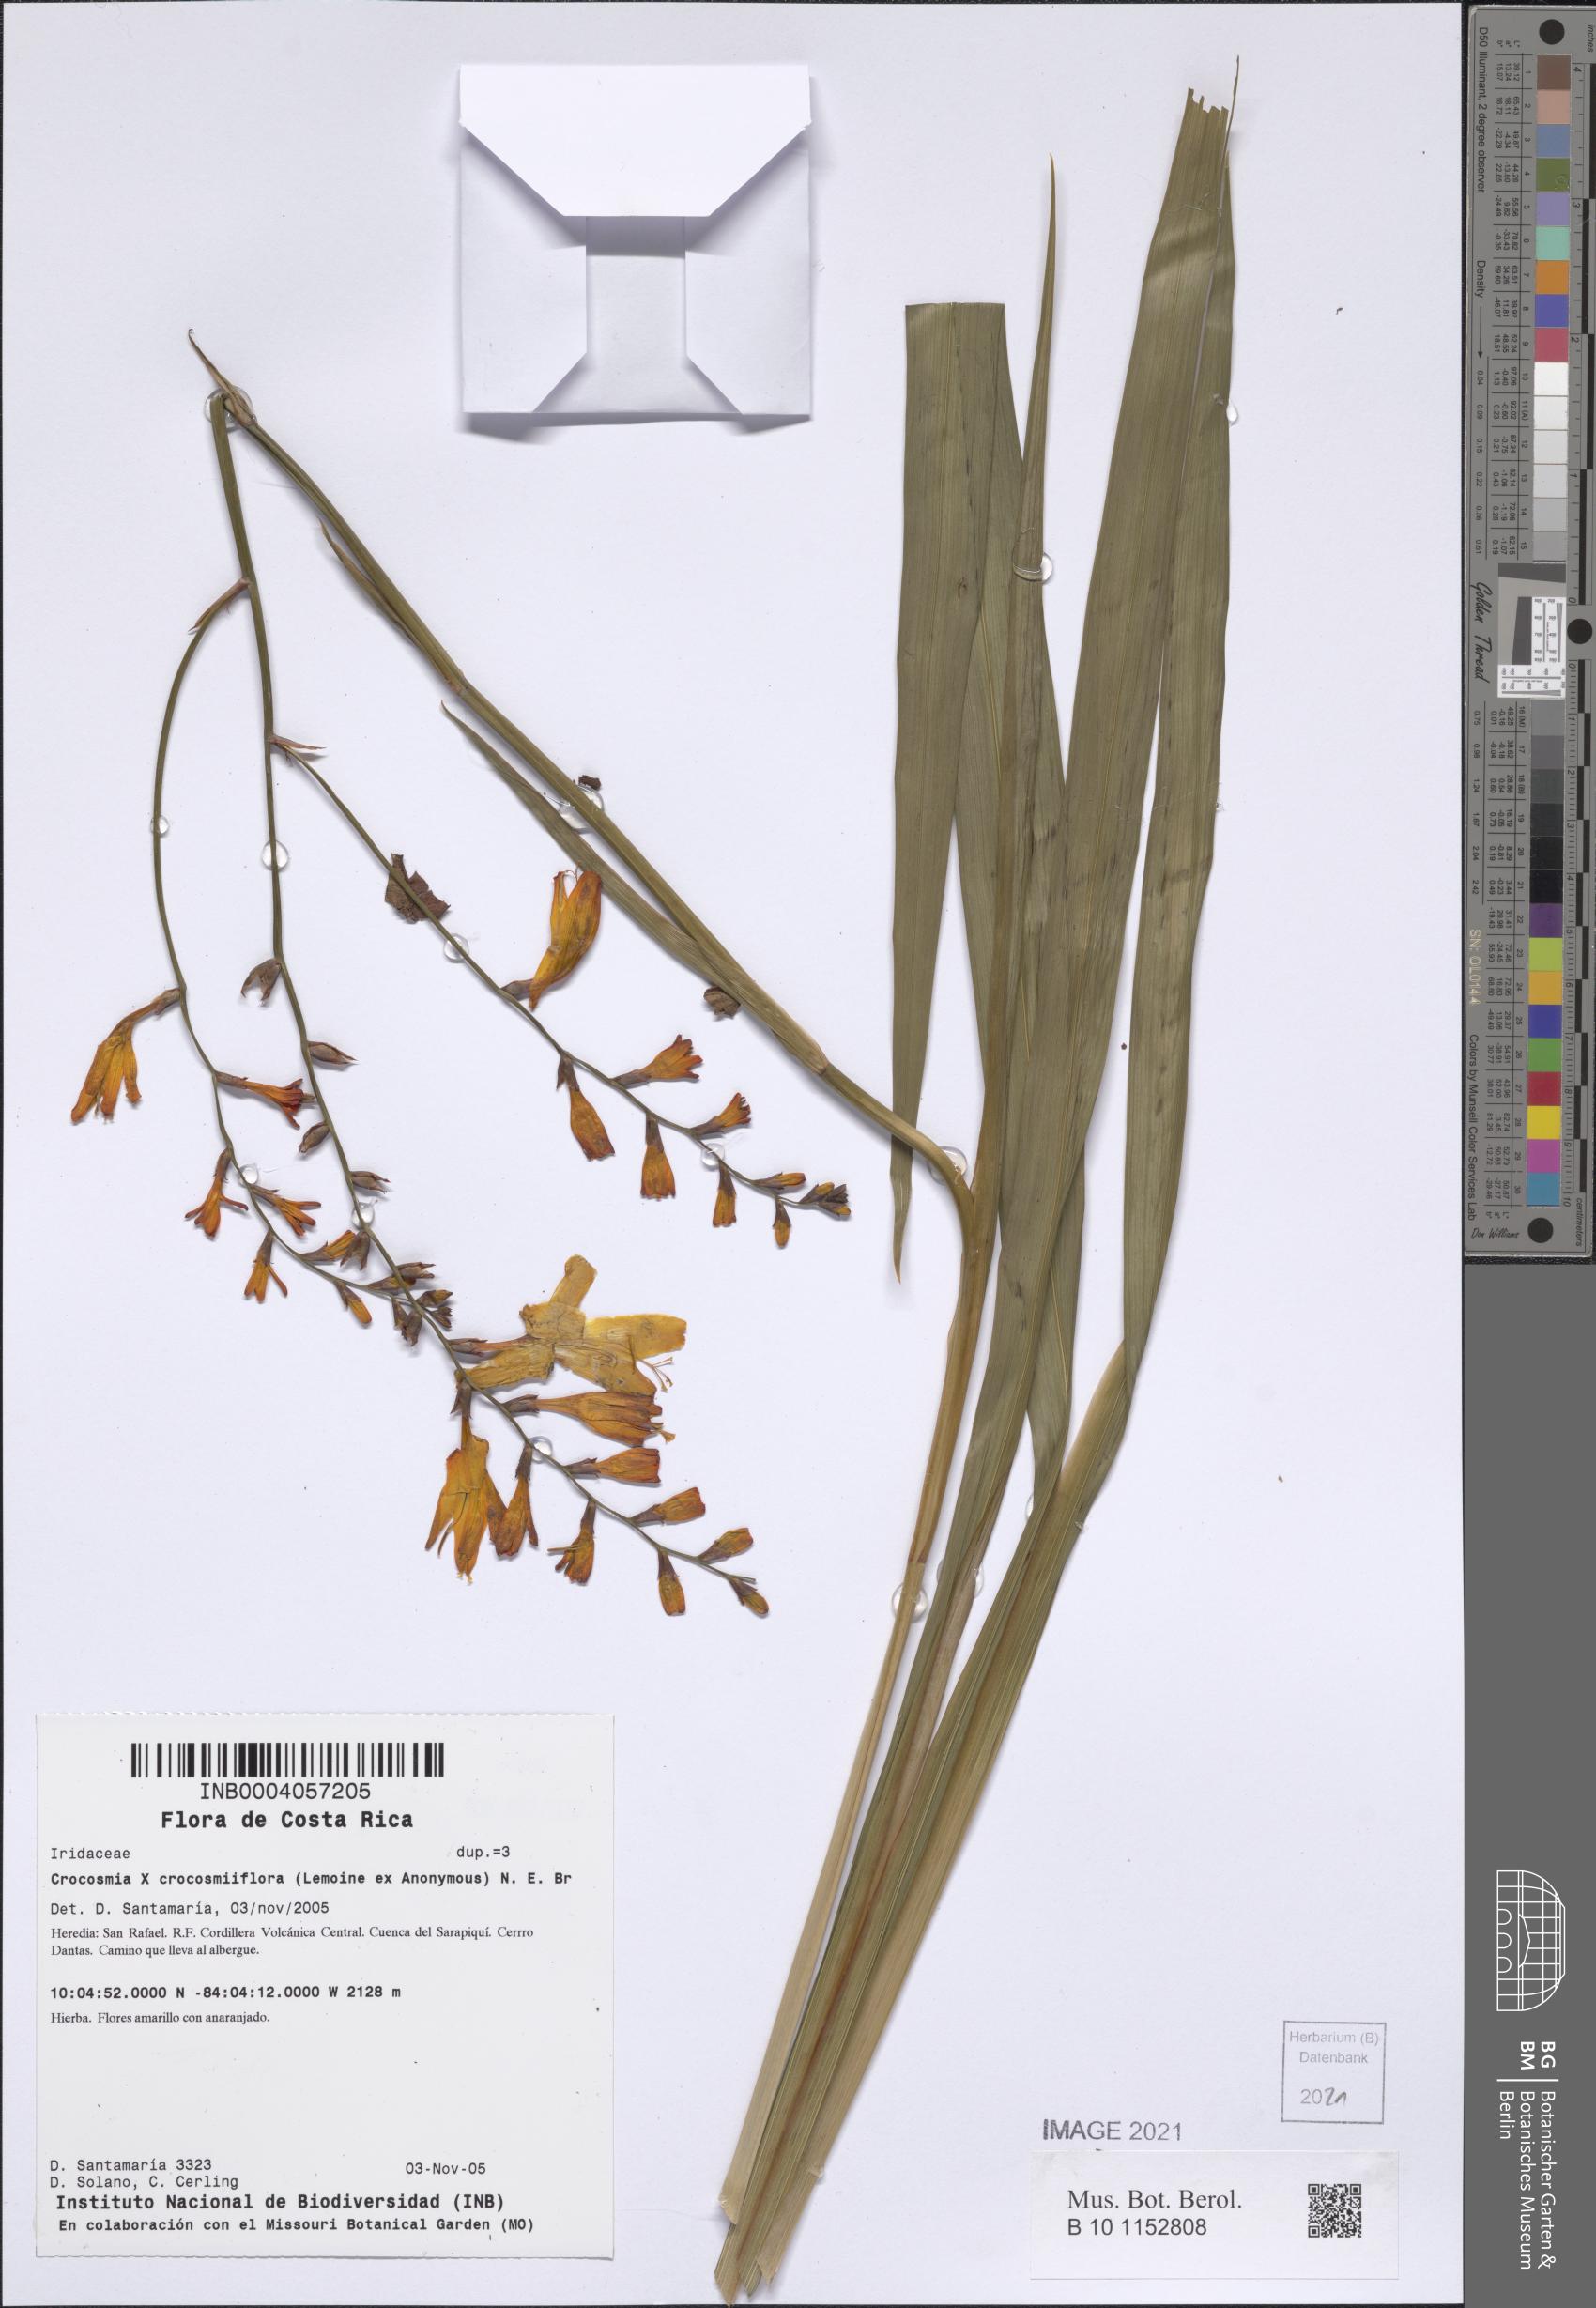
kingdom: Plantae
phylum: Tracheophyta
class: Liliopsida
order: Asparagales
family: Iridaceae
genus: Crocosmia
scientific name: Crocosmia
